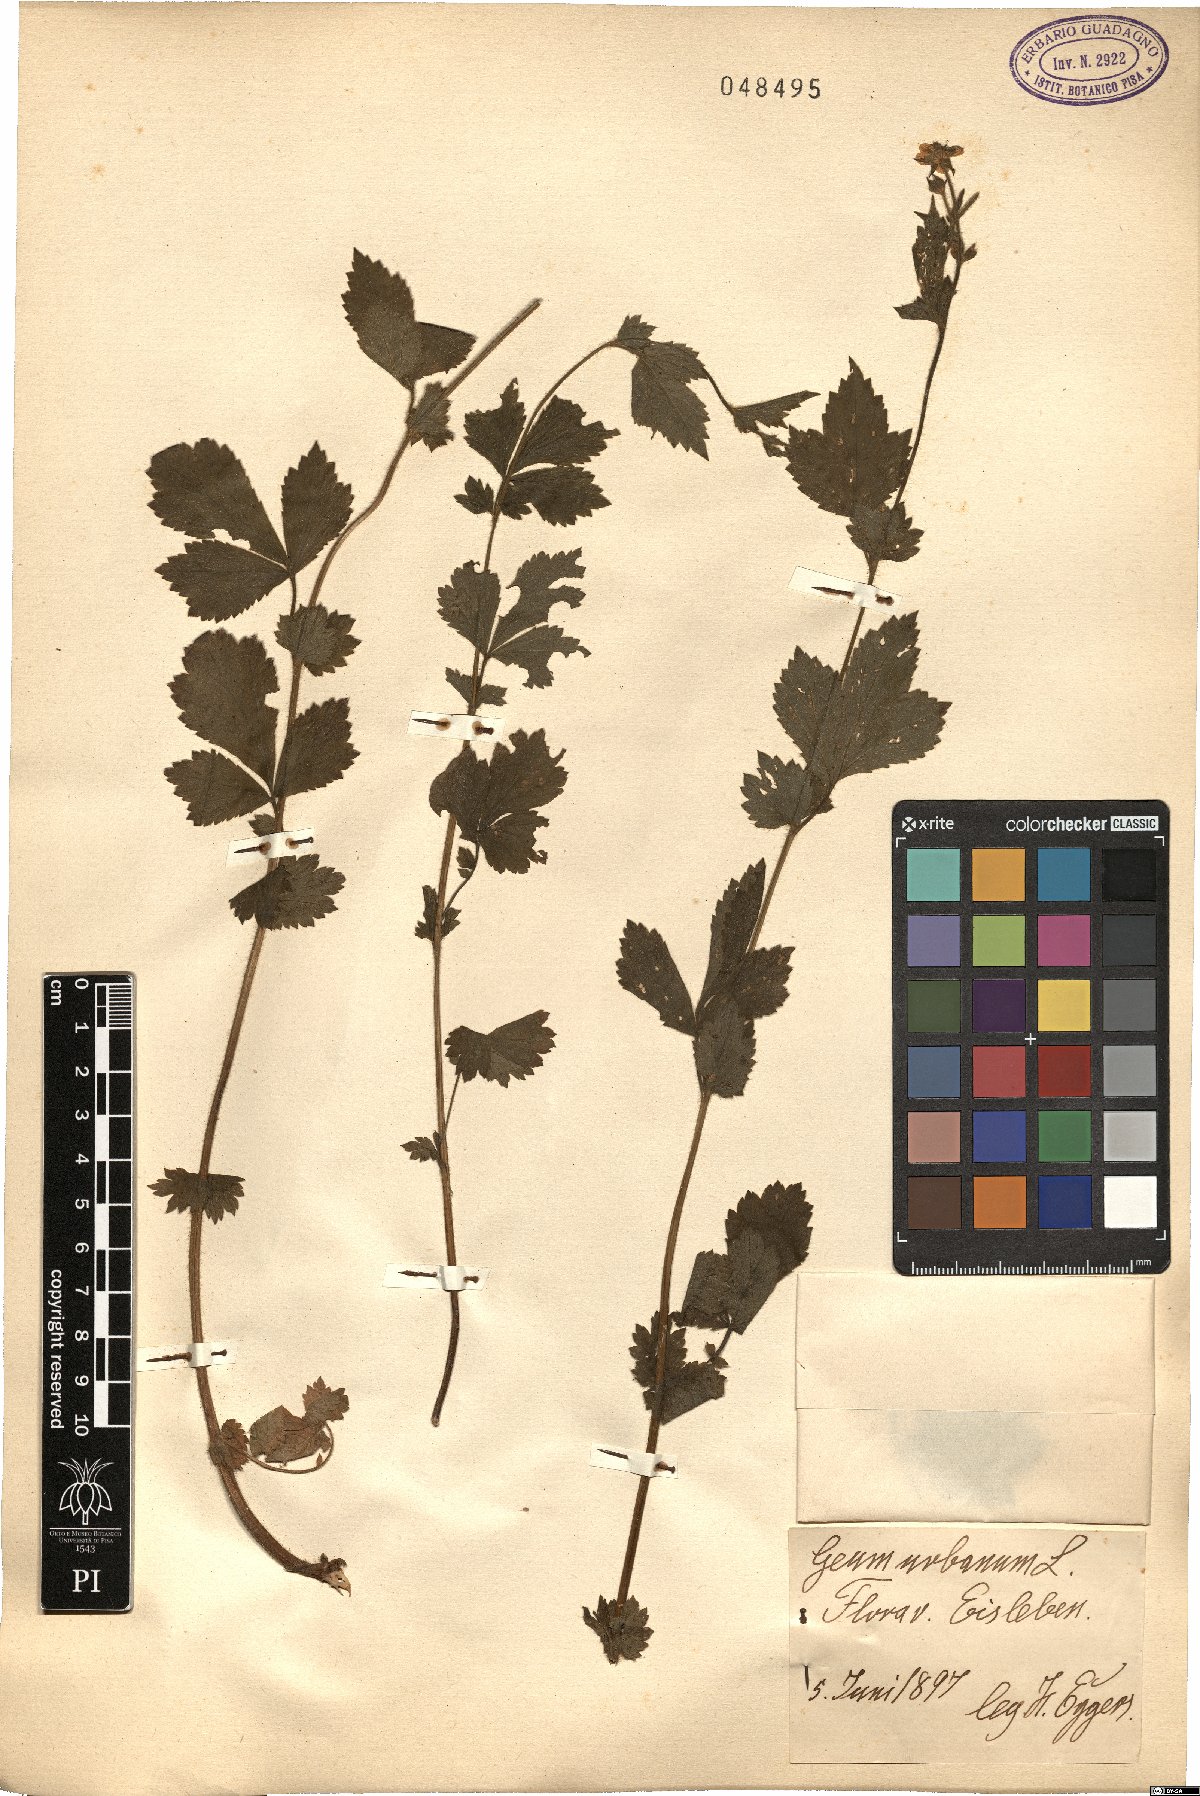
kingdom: Plantae
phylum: Tracheophyta
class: Magnoliopsida
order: Rosales
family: Rosaceae
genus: Geum
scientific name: Geum urbanum
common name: Wood avens
